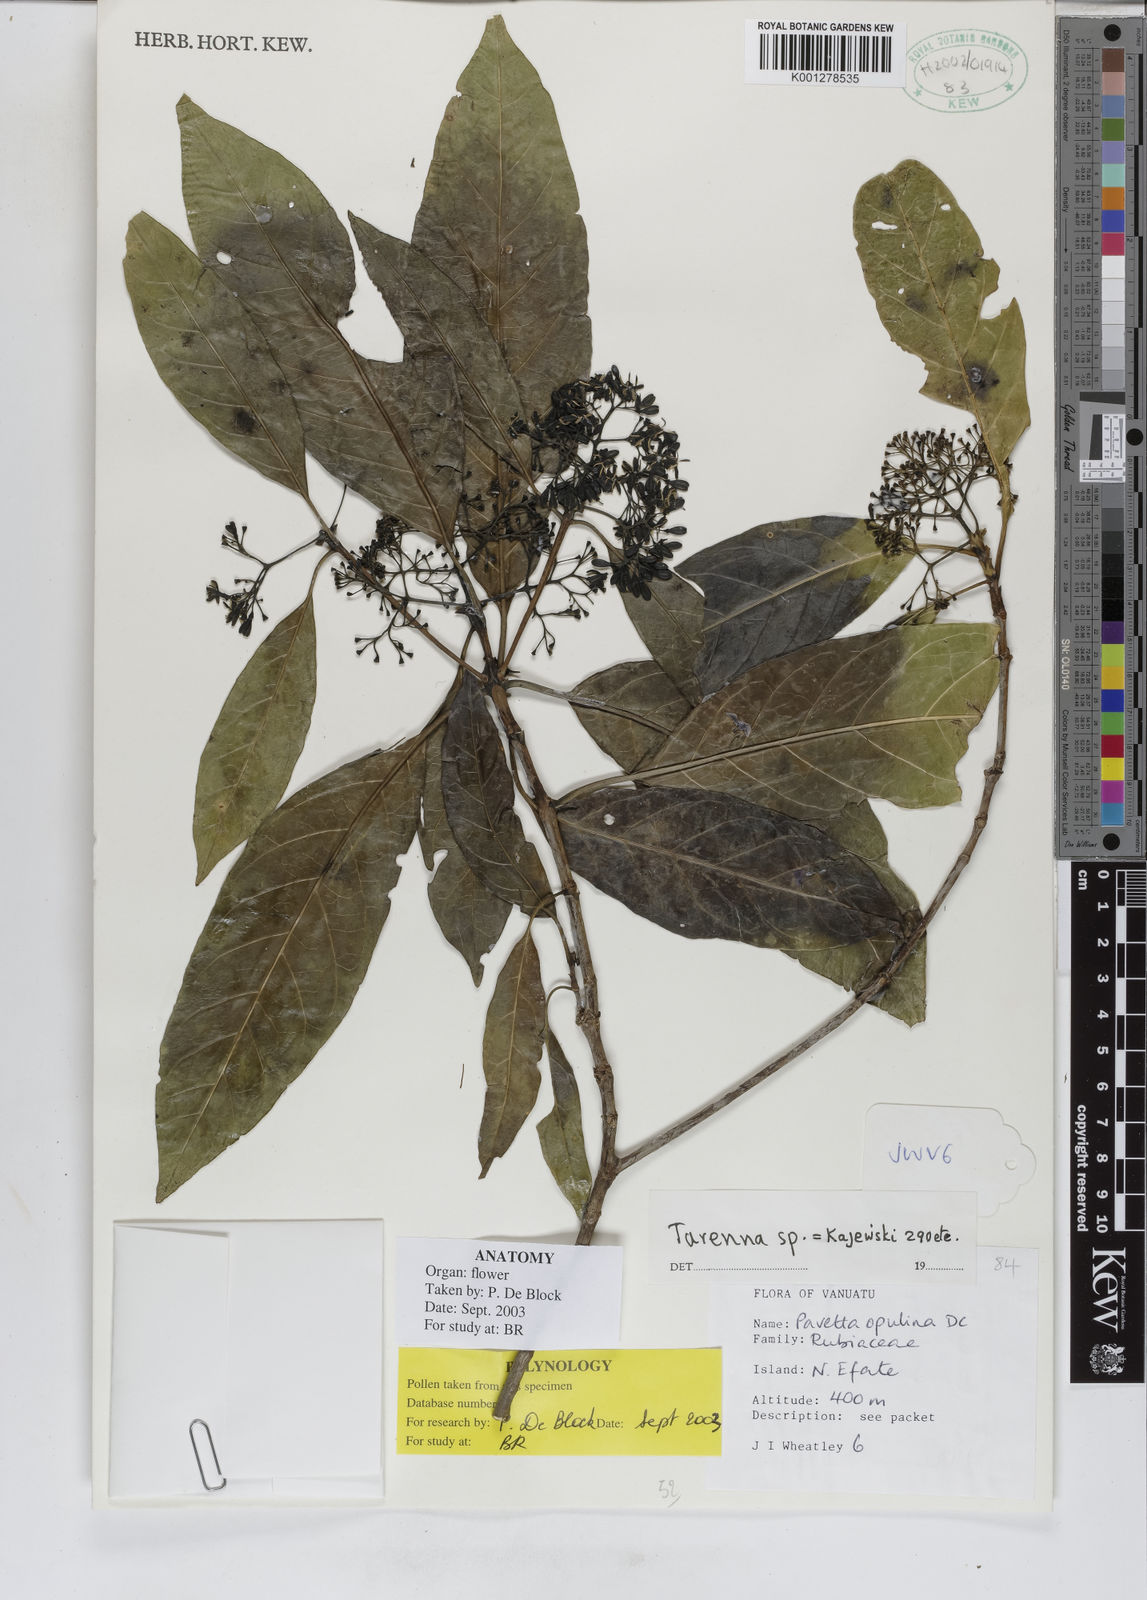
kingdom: Plantae
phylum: Tracheophyta
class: Magnoliopsida
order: Gentianales
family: Rubiaceae
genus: Tarenna
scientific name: Tarenna
